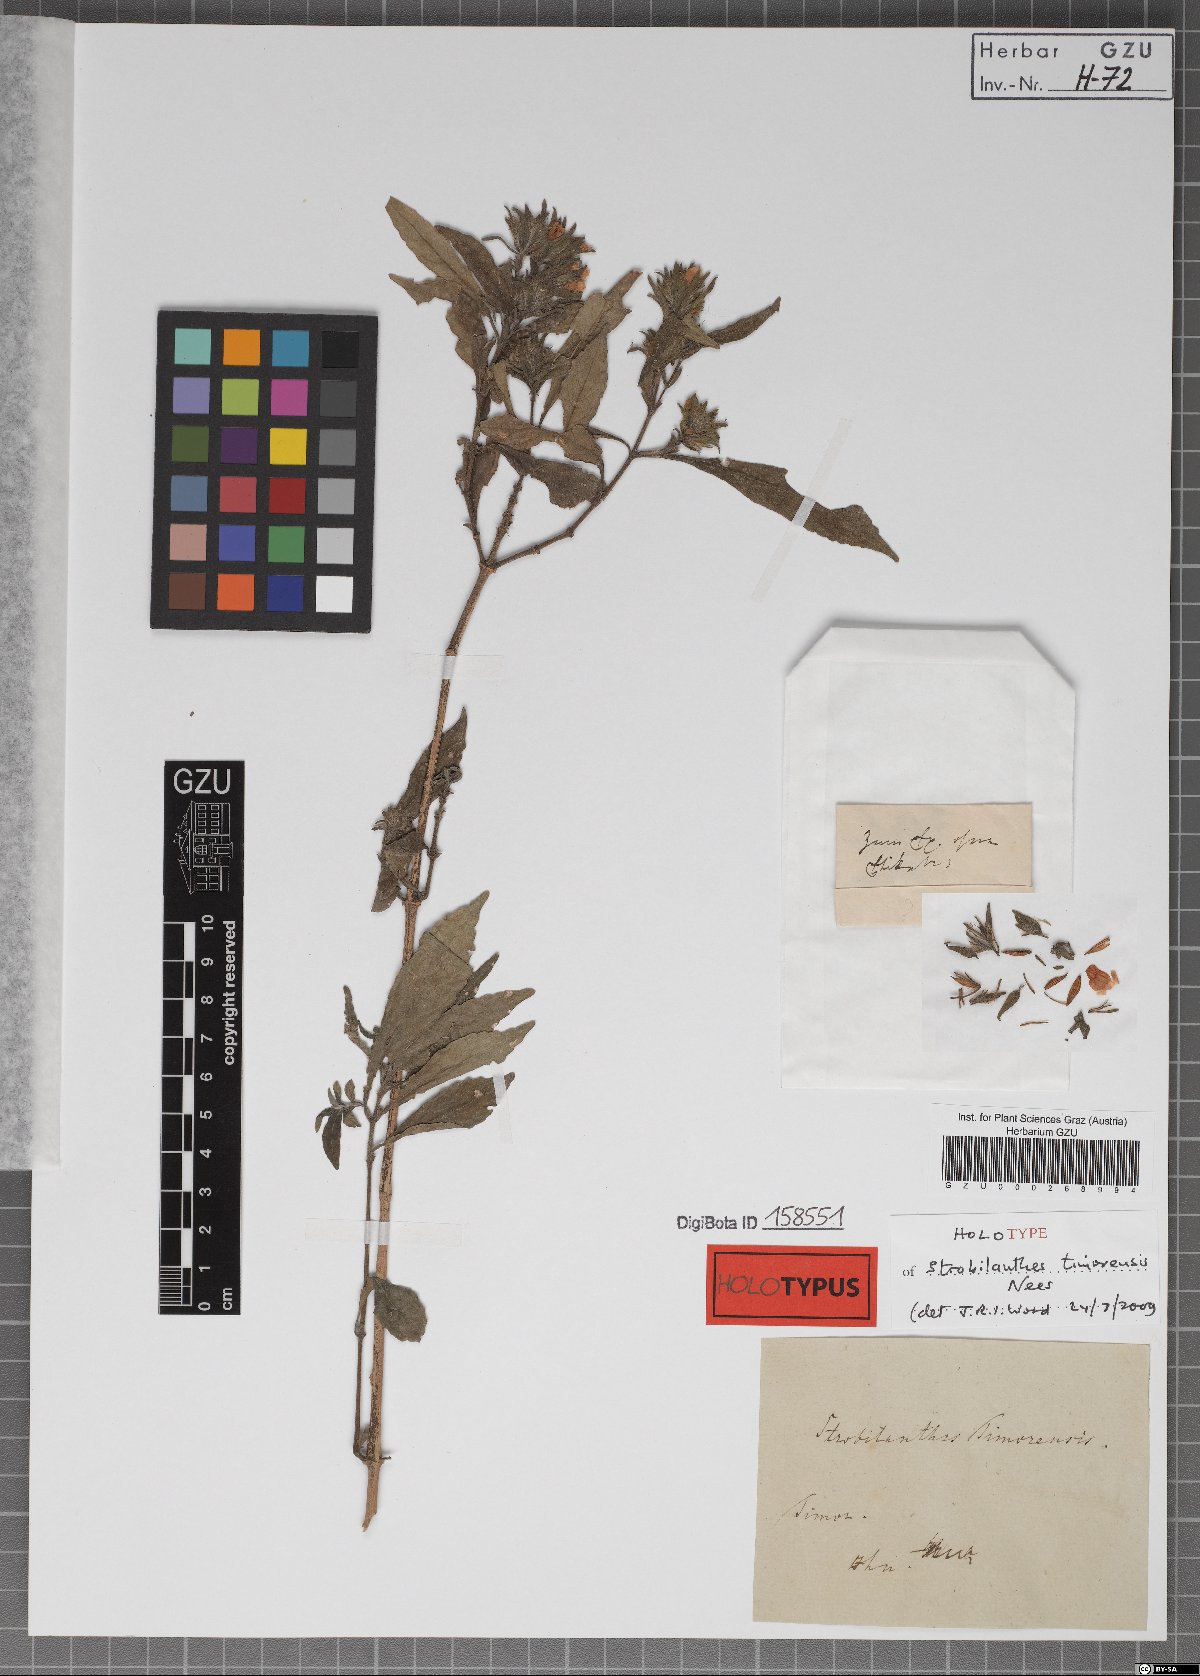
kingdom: Plantae
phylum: Tracheophyta
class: Magnoliopsida
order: Lamiales
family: Acanthaceae
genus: Strobilanthes
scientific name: Strobilanthes timorensis
